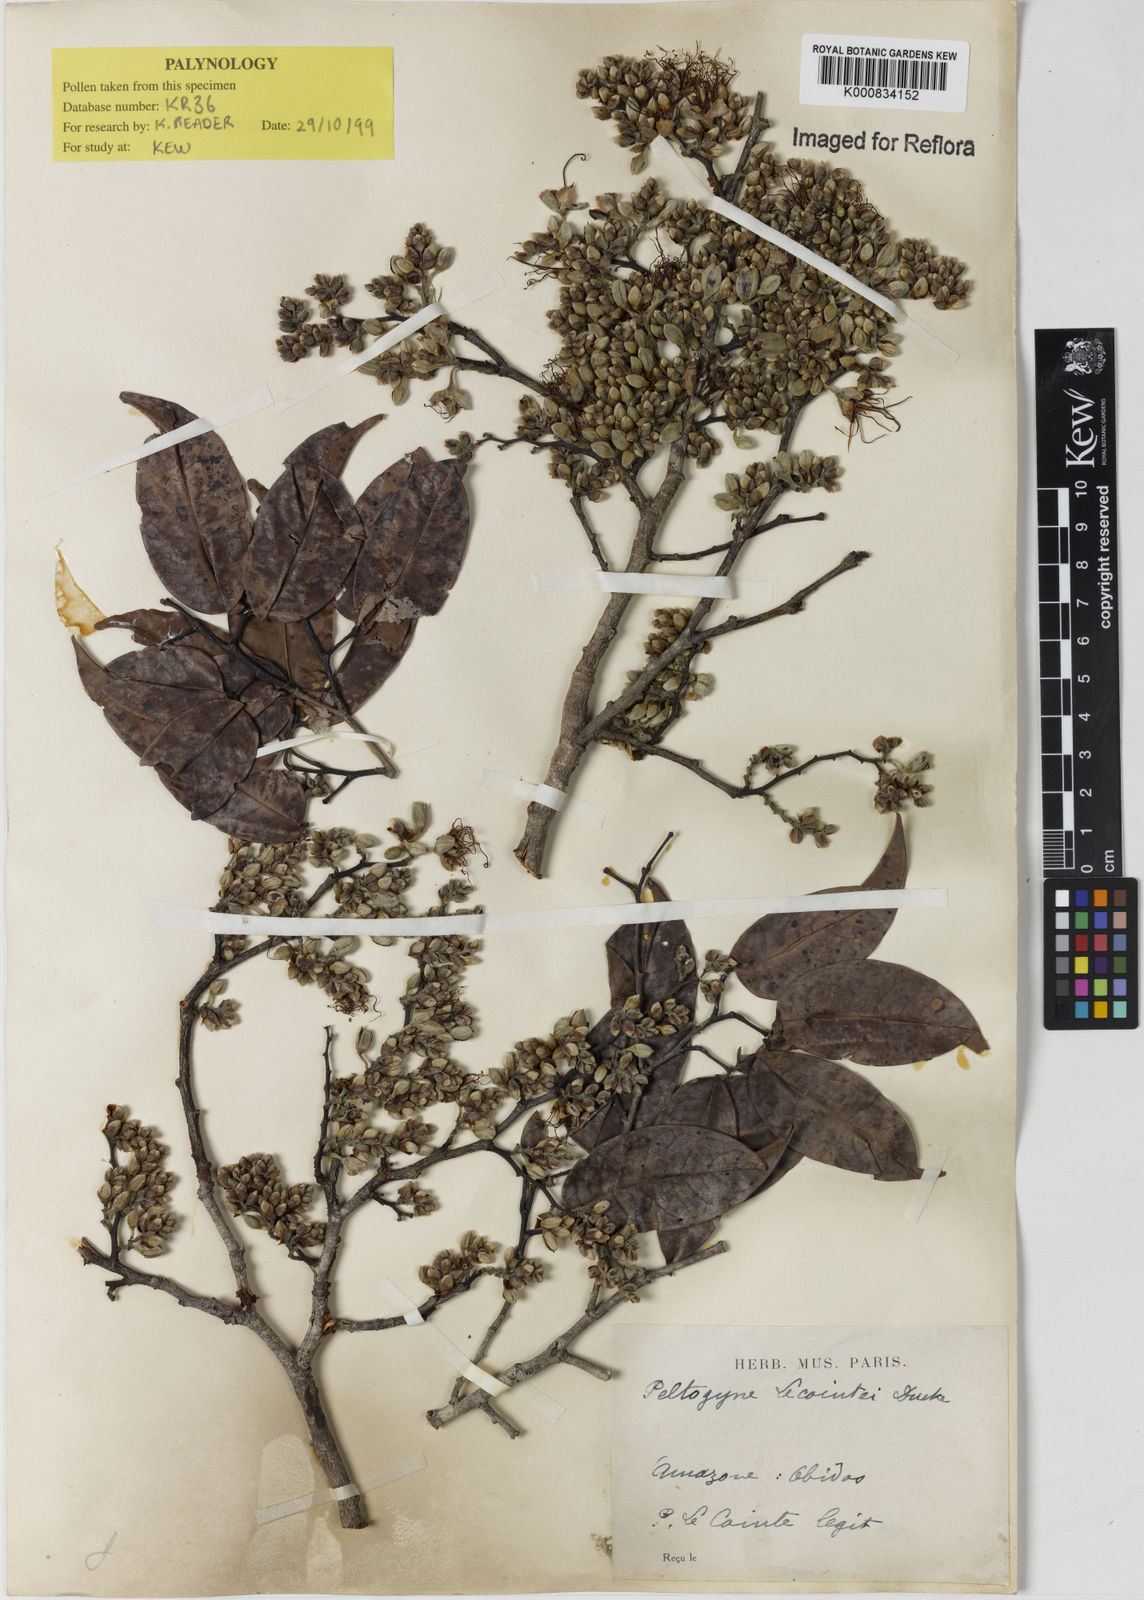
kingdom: Plantae
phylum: Tracheophyta
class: Magnoliopsida
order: Fabales
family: Fabaceae
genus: Peltogyne
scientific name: Peltogyne lecointei
